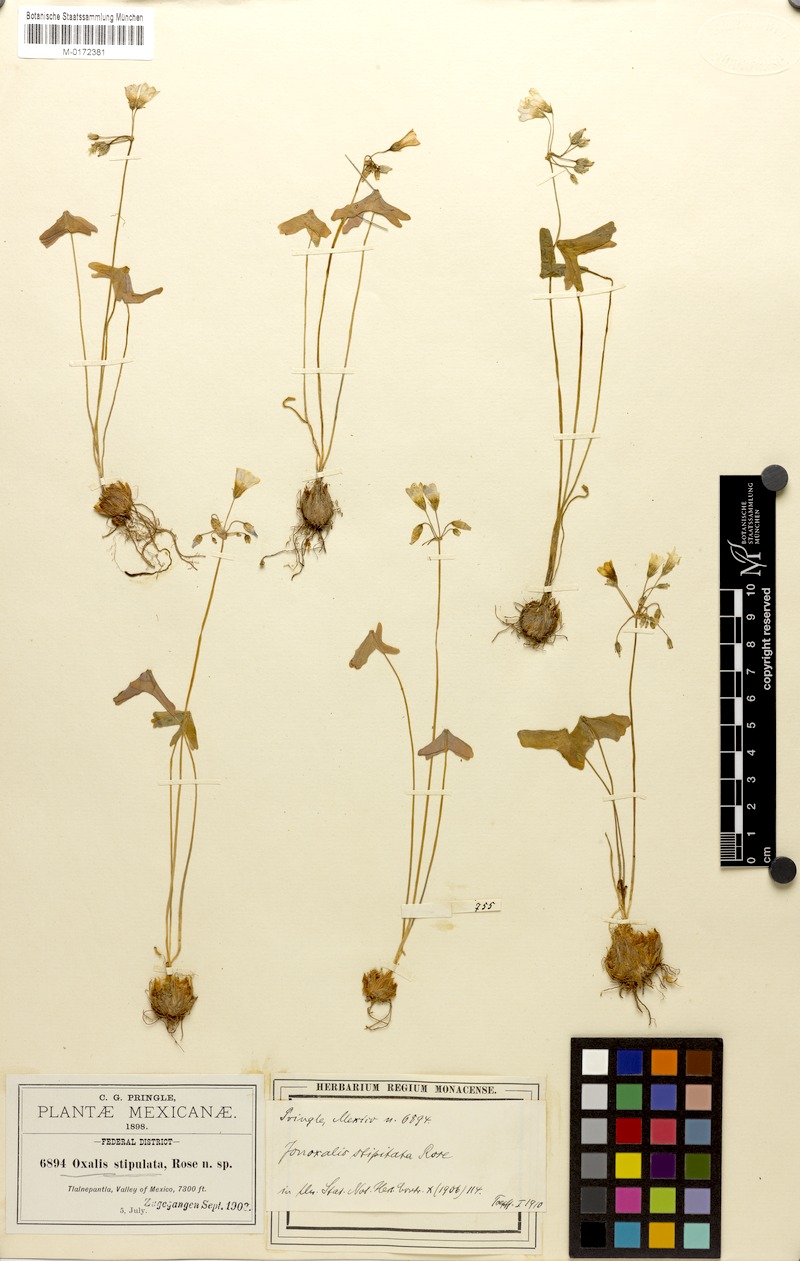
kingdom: Plantae
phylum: Tracheophyta
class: Magnoliopsida
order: Oxalidales
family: Oxalidaceae
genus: Oxalis
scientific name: Oxalis latifolia
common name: Garden pink-sorrel
